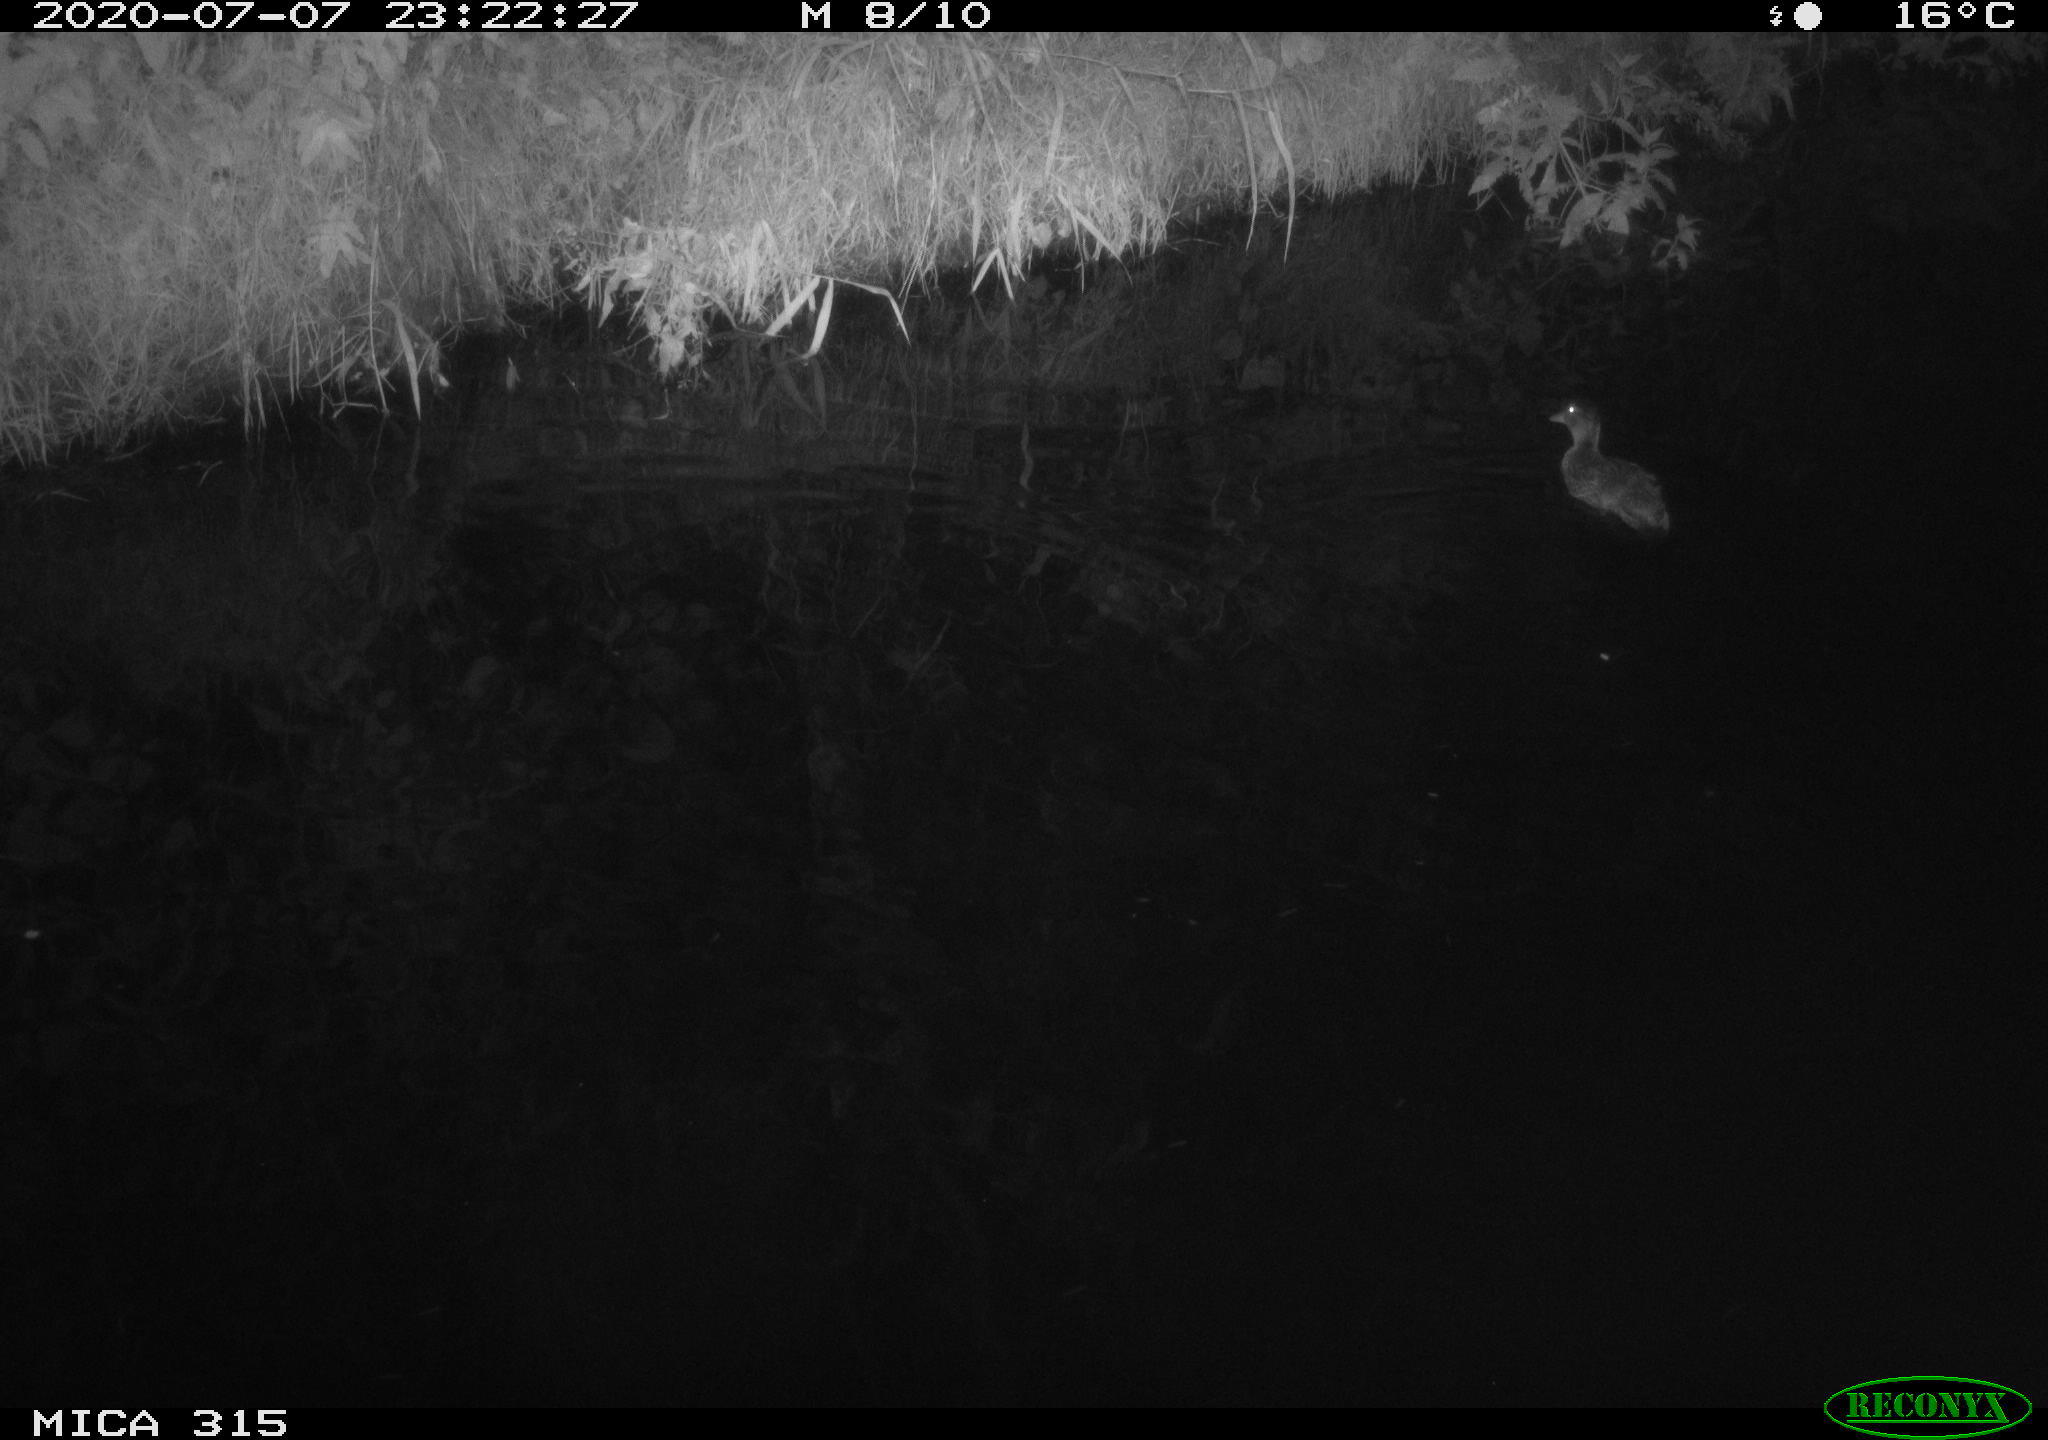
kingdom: Animalia
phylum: Chordata
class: Aves
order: Anseriformes
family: Anatidae
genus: Anas
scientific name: Anas platyrhynchos
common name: Mallard
